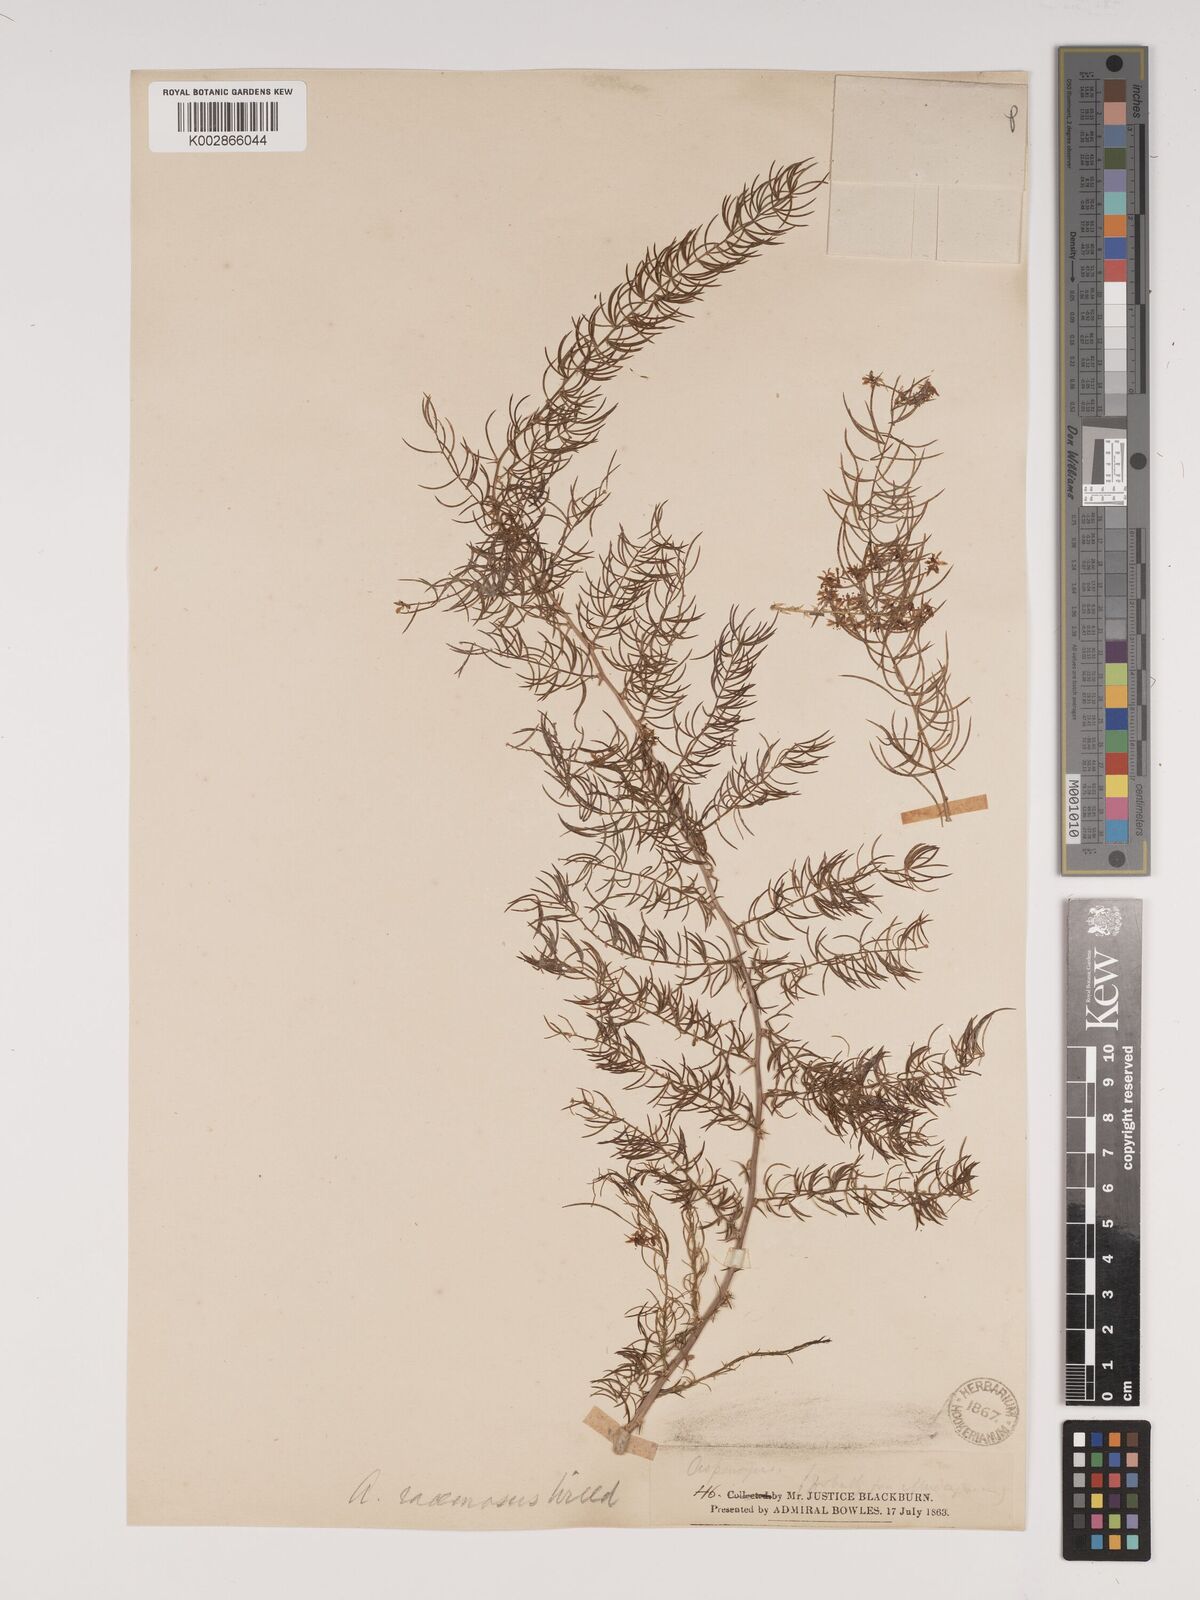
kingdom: Plantae
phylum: Tracheophyta
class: Liliopsida
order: Asparagales
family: Asparagaceae
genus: Asparagus
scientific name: Asparagus racemosus
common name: Asparagus-fern
